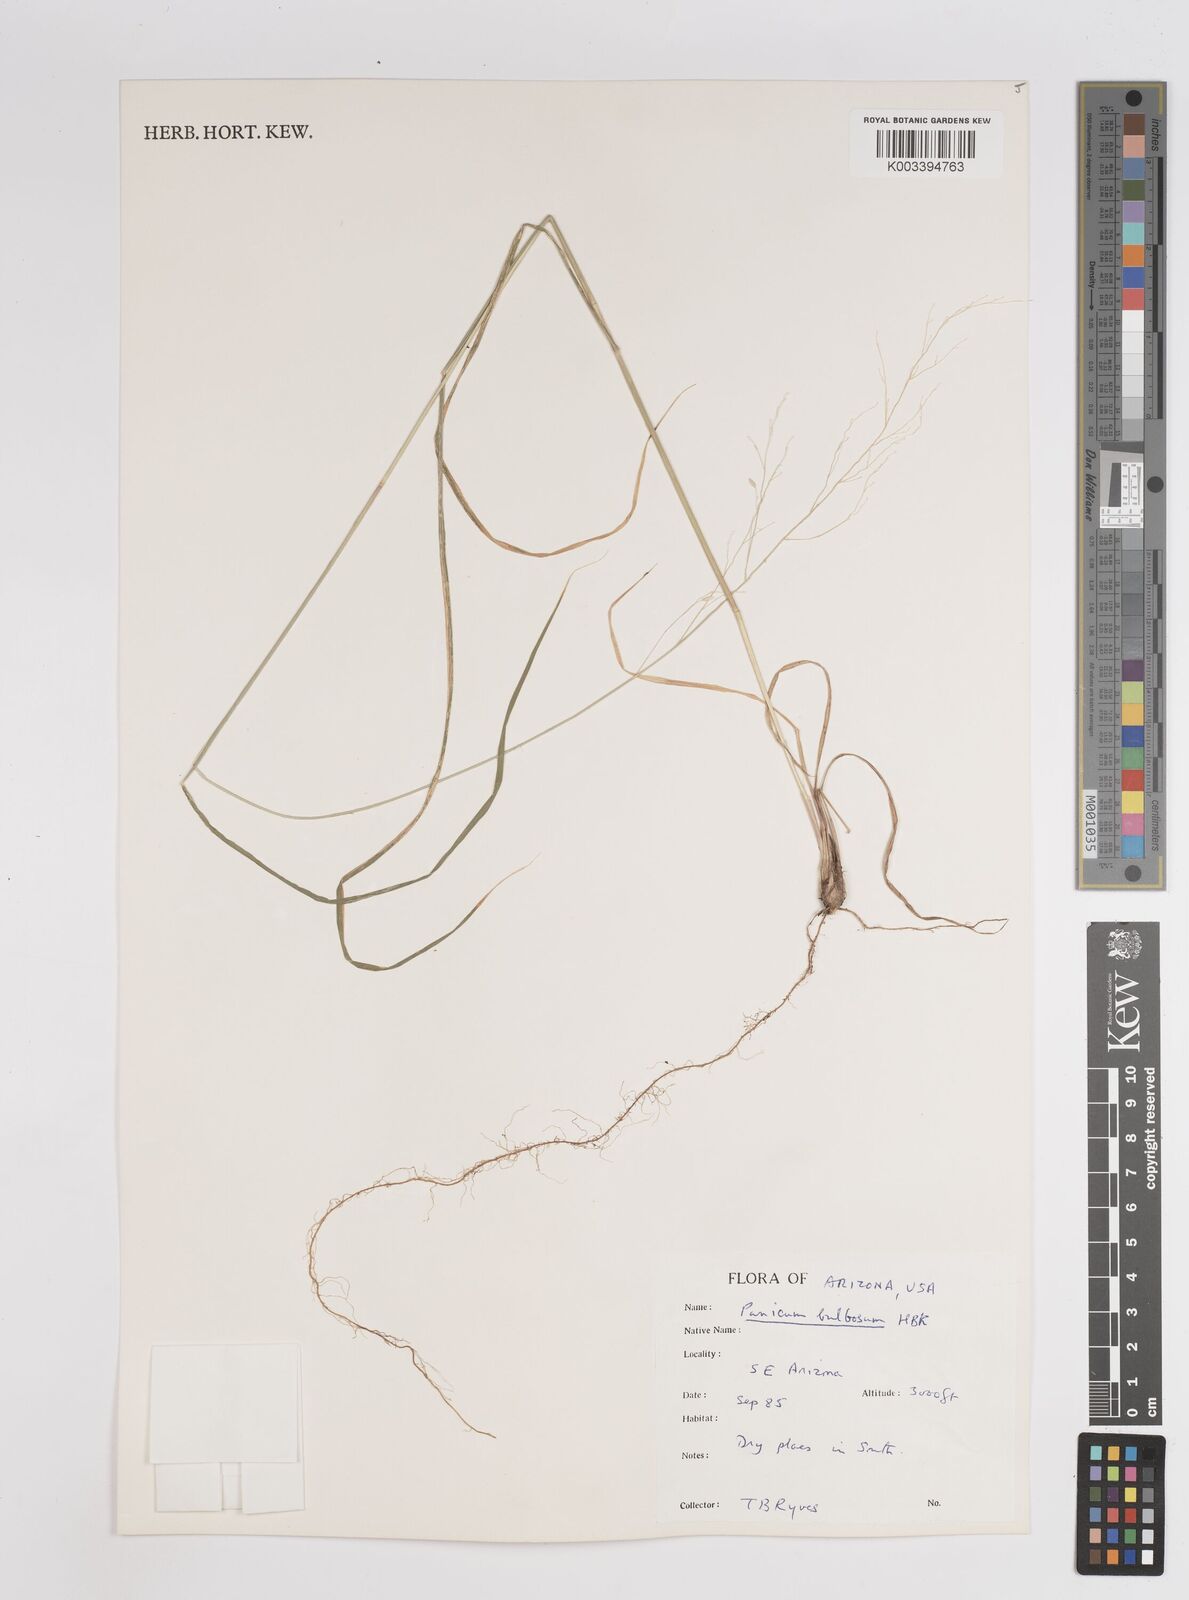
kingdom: Plantae
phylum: Tracheophyta
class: Liliopsida
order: Poales
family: Poaceae
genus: Zuloagaea
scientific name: Zuloagaea bulbosa
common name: Canyon panic grass
